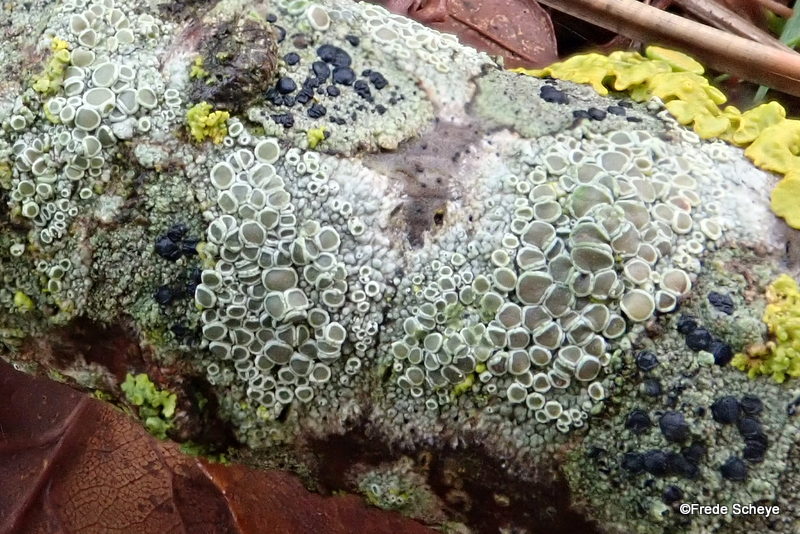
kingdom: Fungi
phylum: Ascomycota
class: Lecanoromycetes
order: Lecanorales
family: Lecanoraceae
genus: Lecanora
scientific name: Lecanora chlarotera
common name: brun kantskivelav
